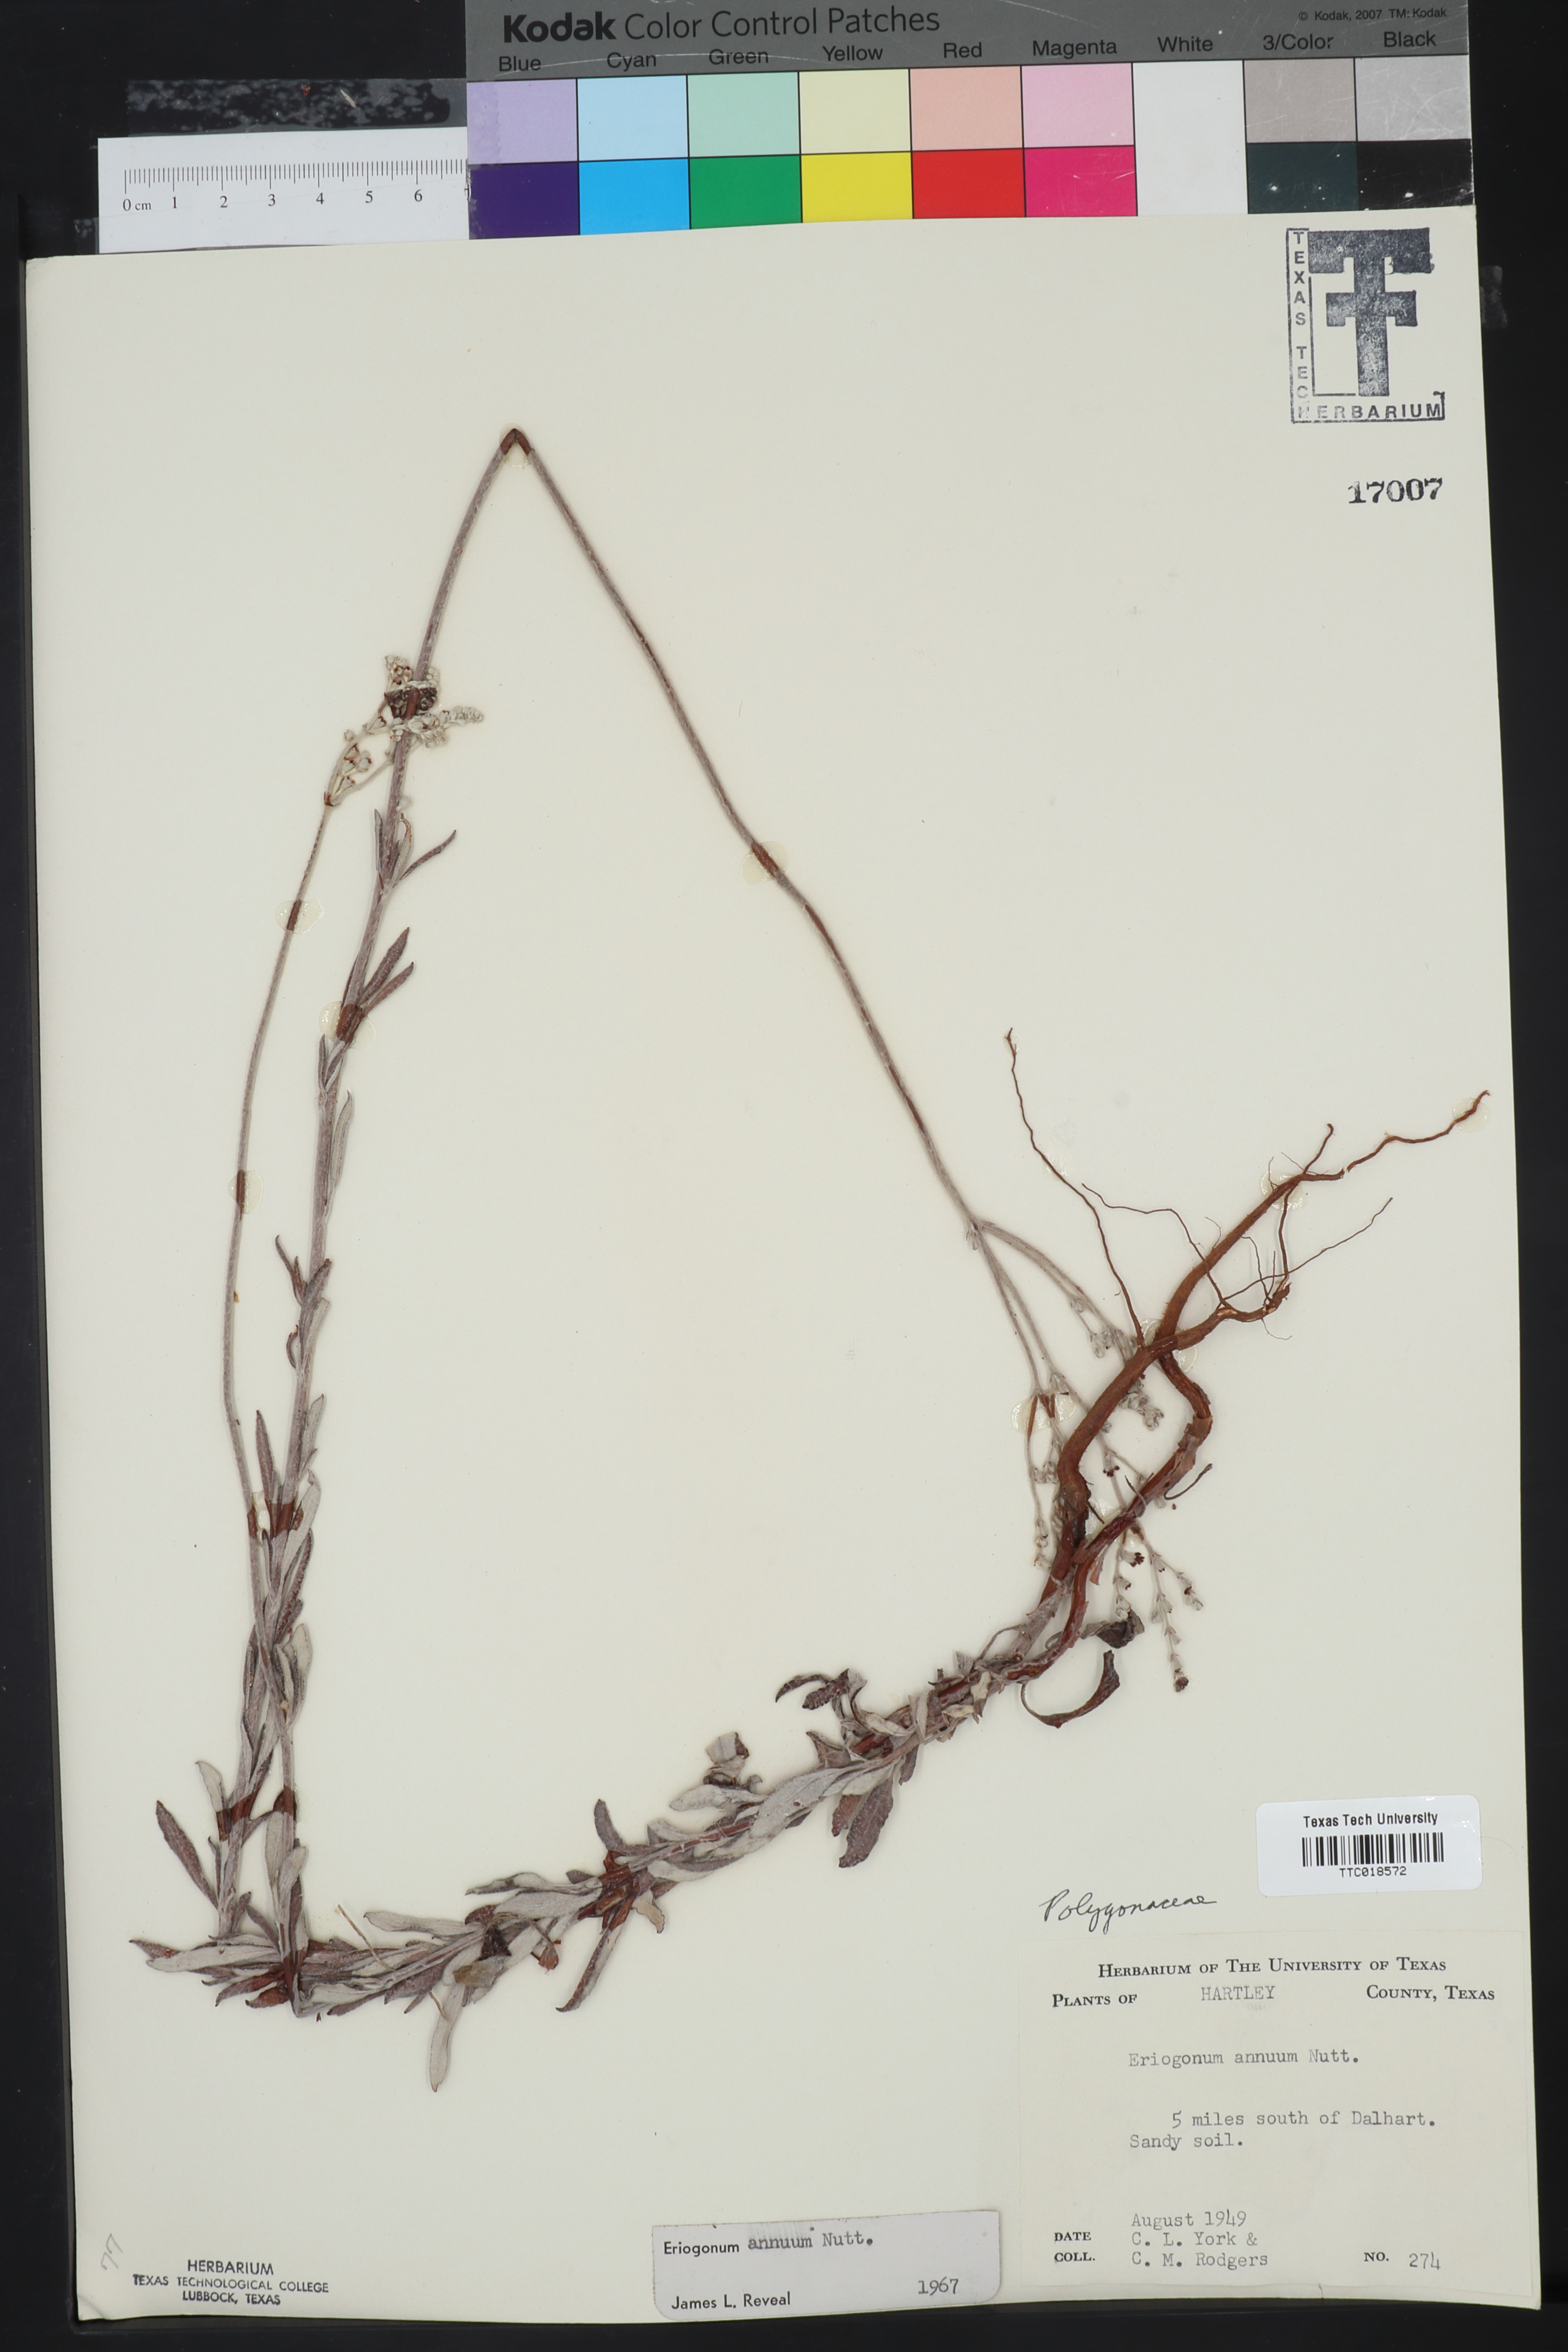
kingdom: Plantae
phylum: Tracheophyta
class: Magnoliopsida
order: Caryophyllales
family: Polygonaceae
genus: Eriogonum
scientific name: Eriogonum annuum
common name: Annual wild buckwheat
